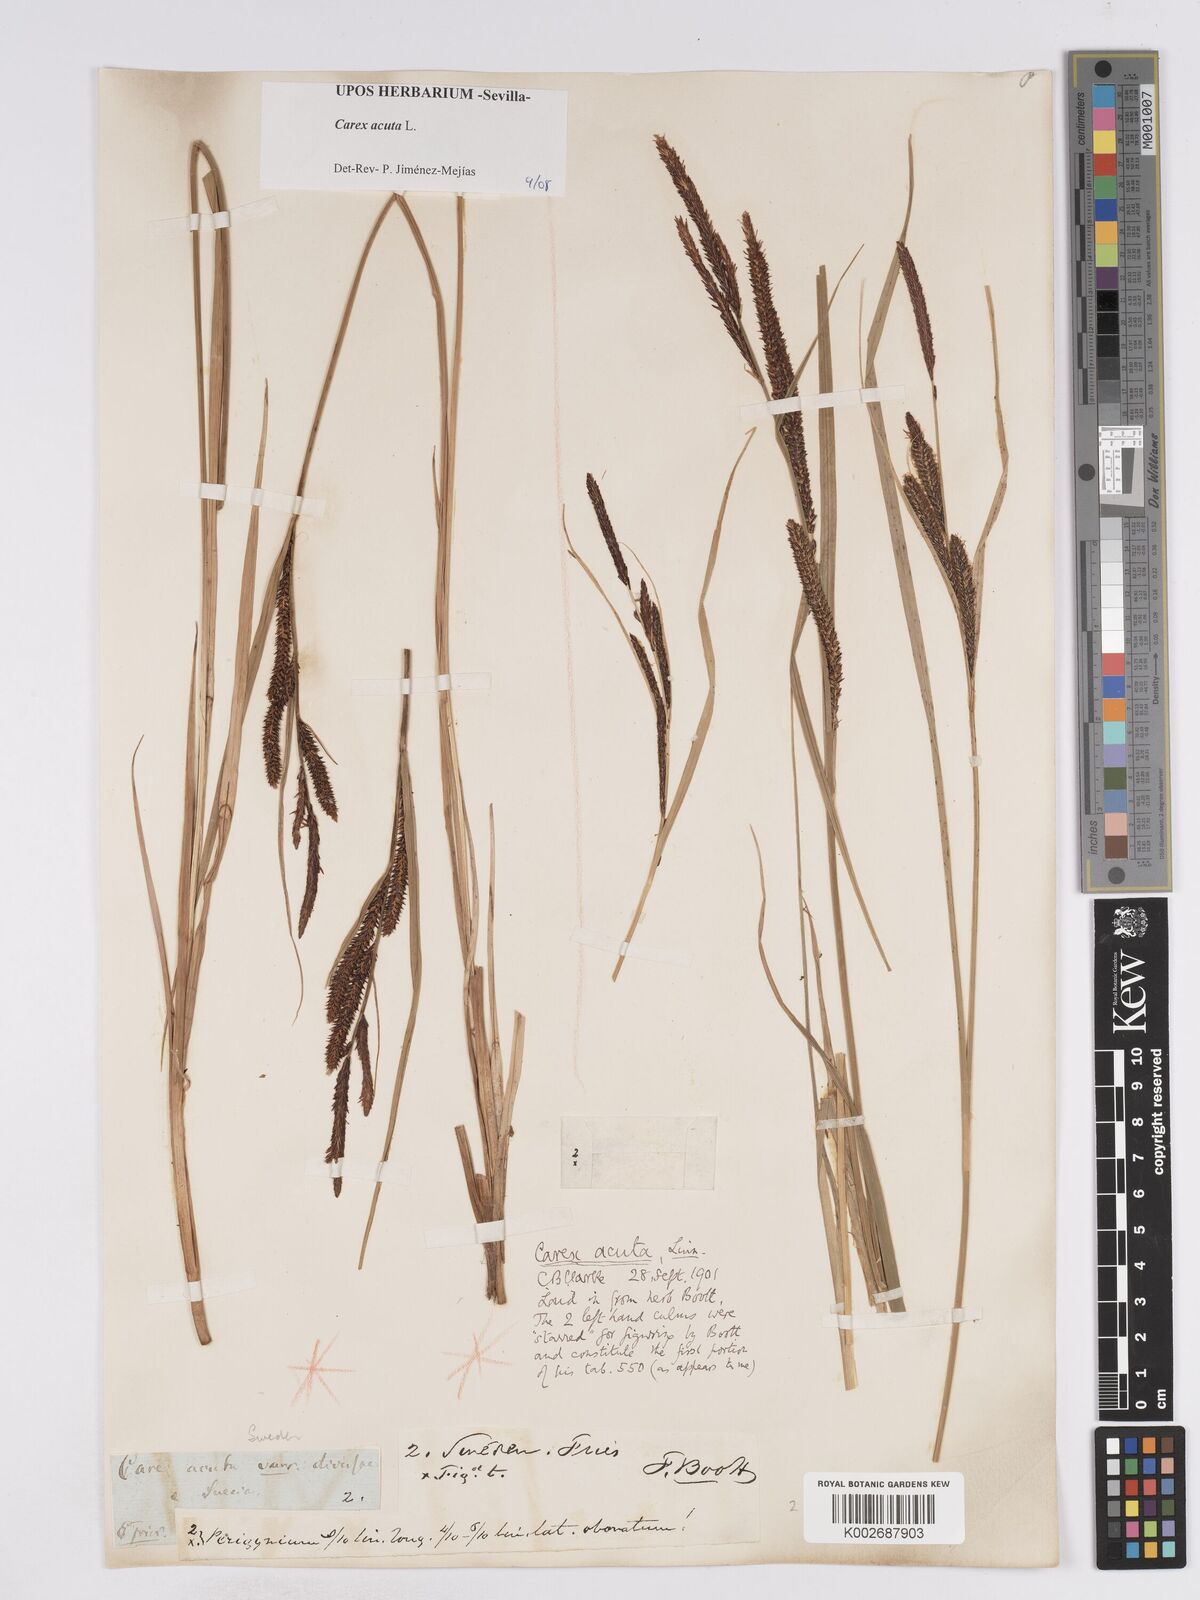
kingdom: Plantae
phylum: Tracheophyta
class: Liliopsida
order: Poales
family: Cyperaceae
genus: Carex
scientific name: Carex acuta
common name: Slender tufted-sedge
